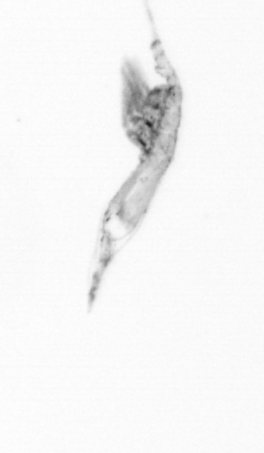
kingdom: Animalia
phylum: Arthropoda
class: Copepoda
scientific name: Copepoda
